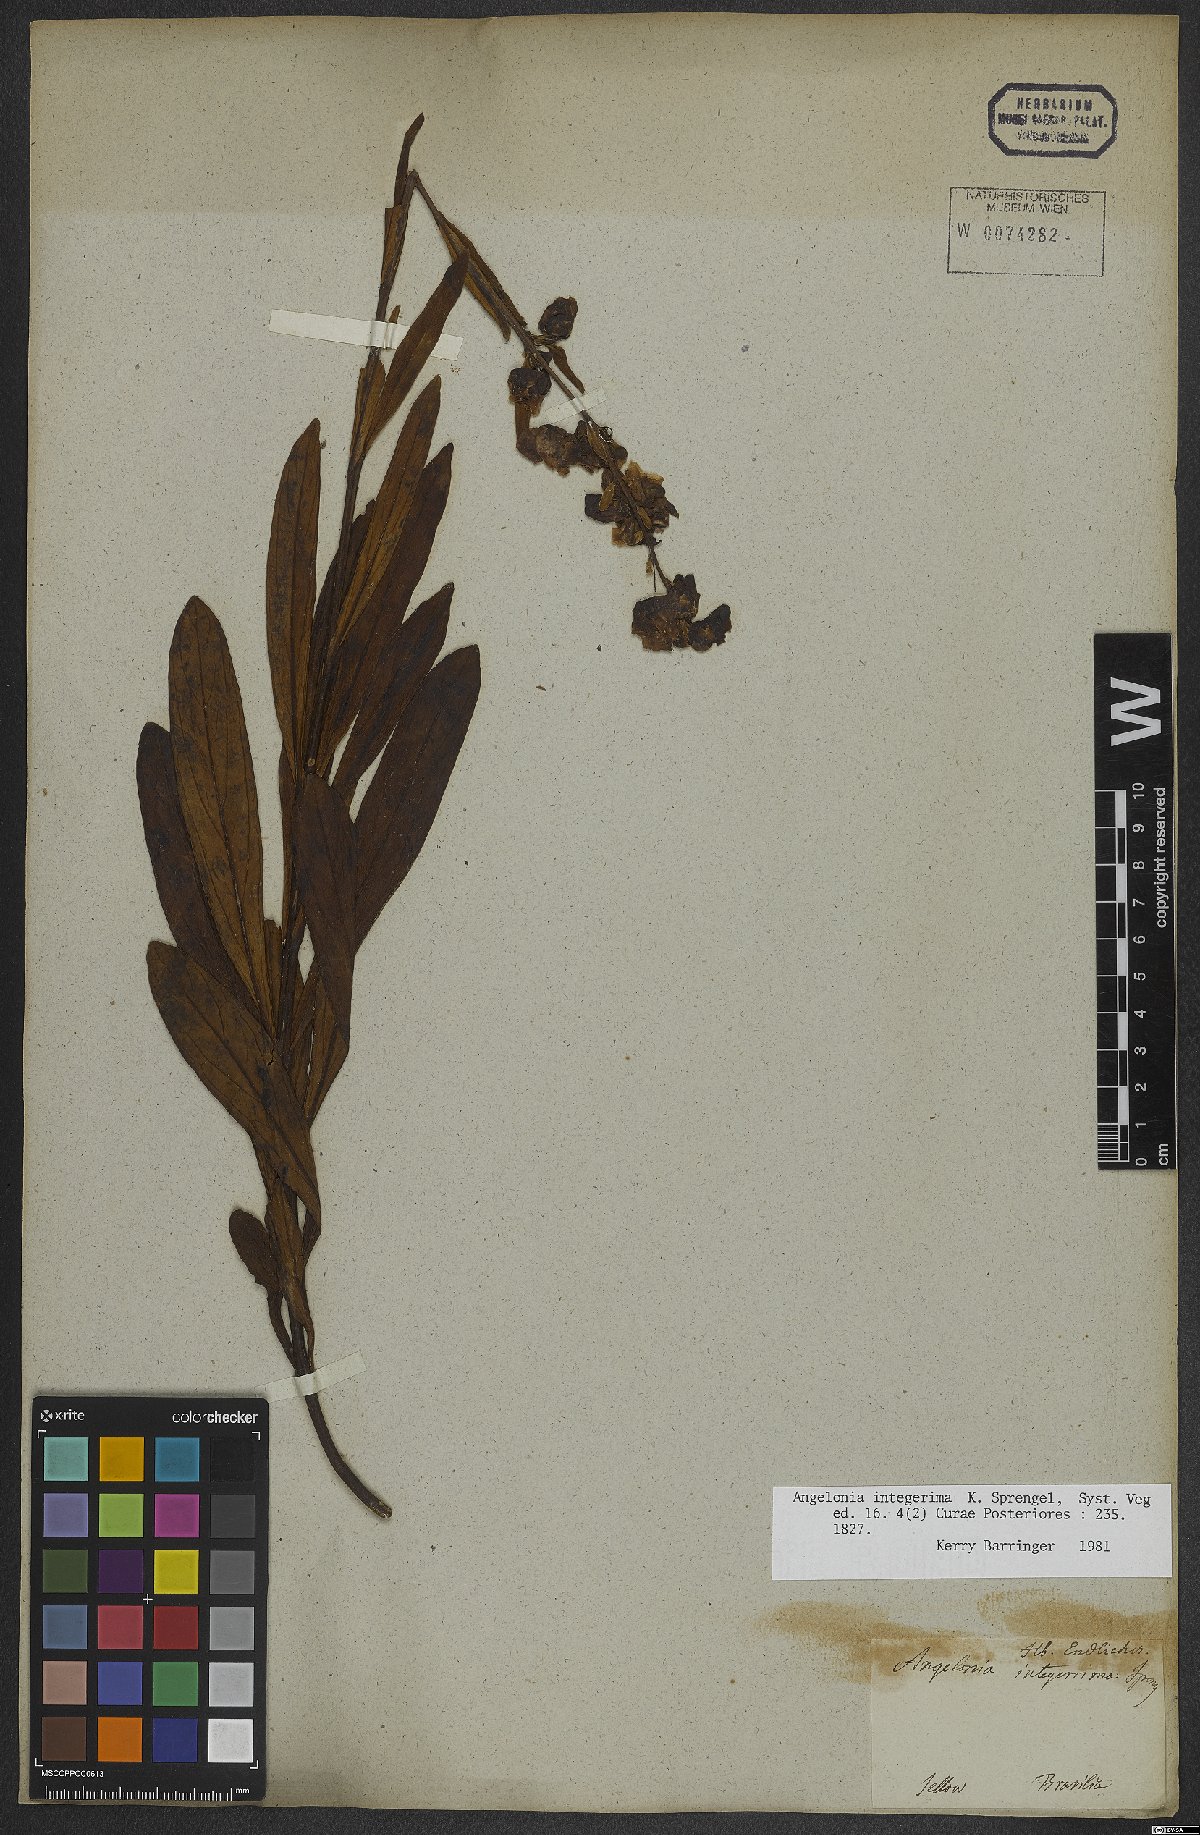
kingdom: Plantae
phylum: Tracheophyta
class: Magnoliopsida
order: Lamiales
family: Plantaginaceae
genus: Angelonia
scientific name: Angelonia integerrima
